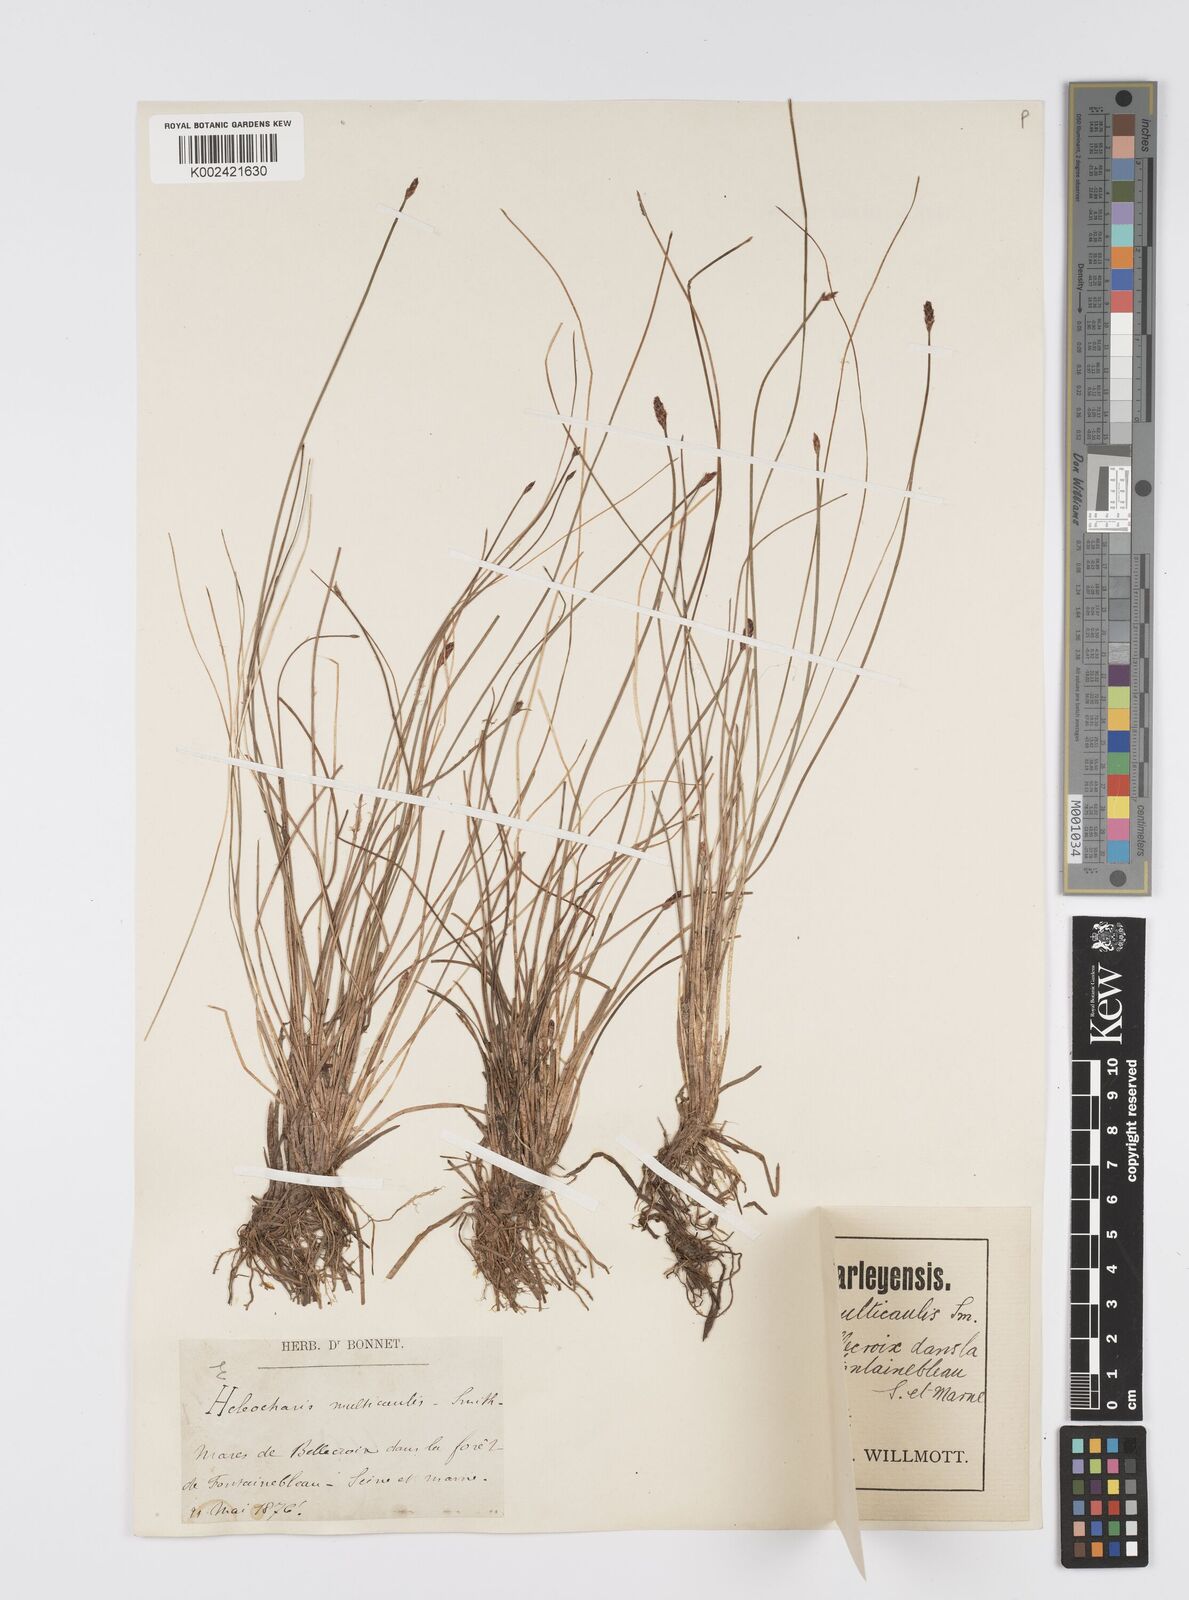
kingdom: Plantae
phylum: Tracheophyta
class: Liliopsida
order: Poales
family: Cyperaceae
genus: Eleocharis
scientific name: Eleocharis multicaulis
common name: Many-stalked spike-rush
